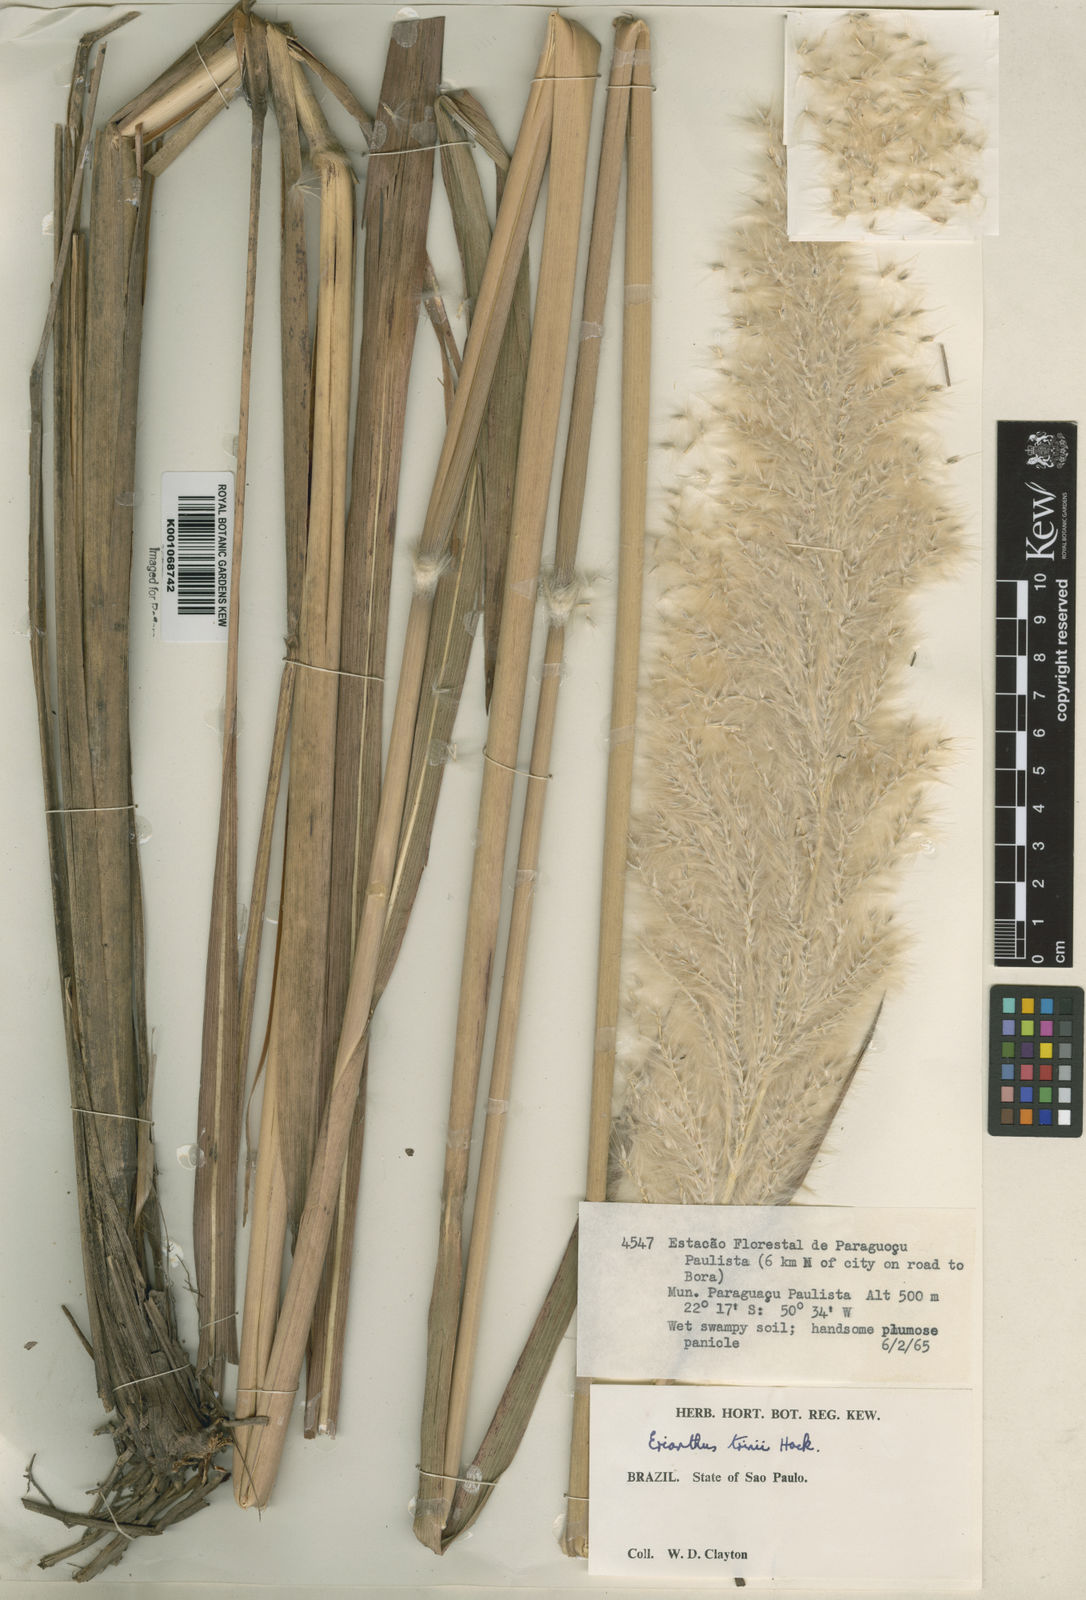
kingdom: Plantae
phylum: Tracheophyta
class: Liliopsida
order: Poales
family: Poaceae
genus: Erianthus
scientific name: Erianthus trinii
